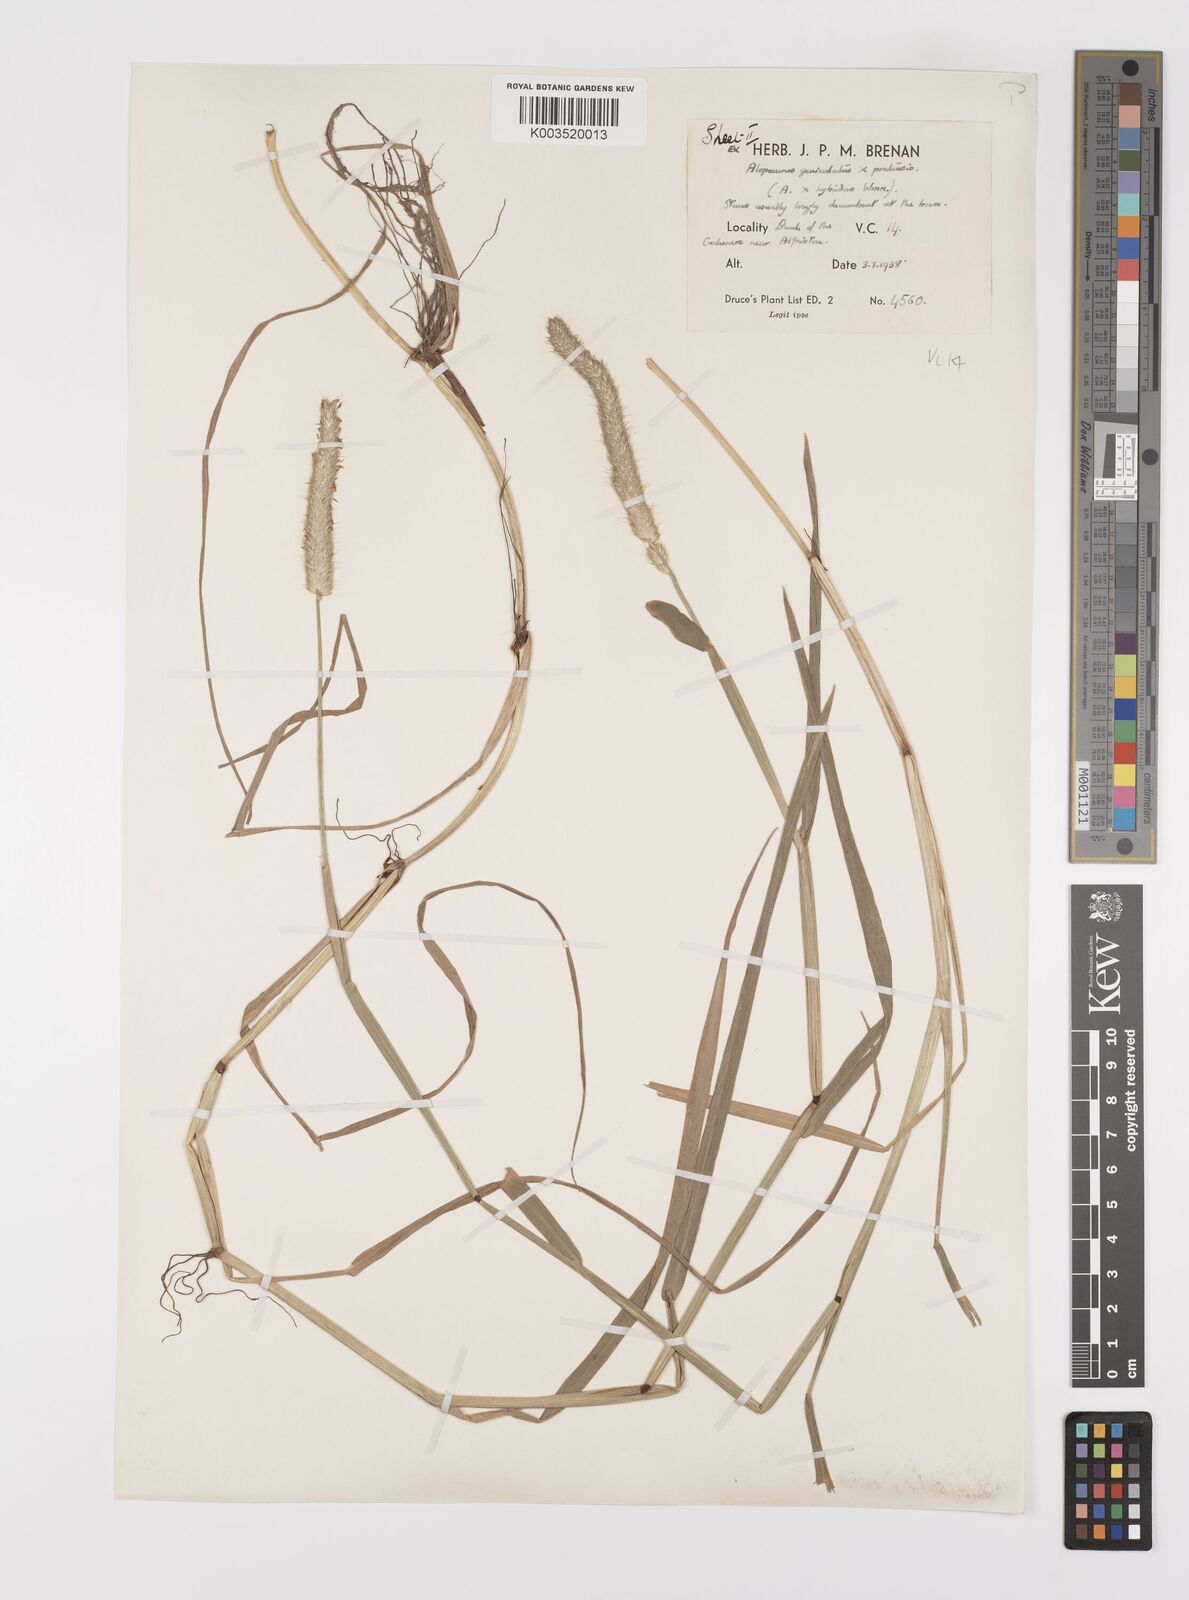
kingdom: Plantae
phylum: Tracheophyta
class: Liliopsida
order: Poales
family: Poaceae
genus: Alopecurus
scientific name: Alopecurus brachystylus
